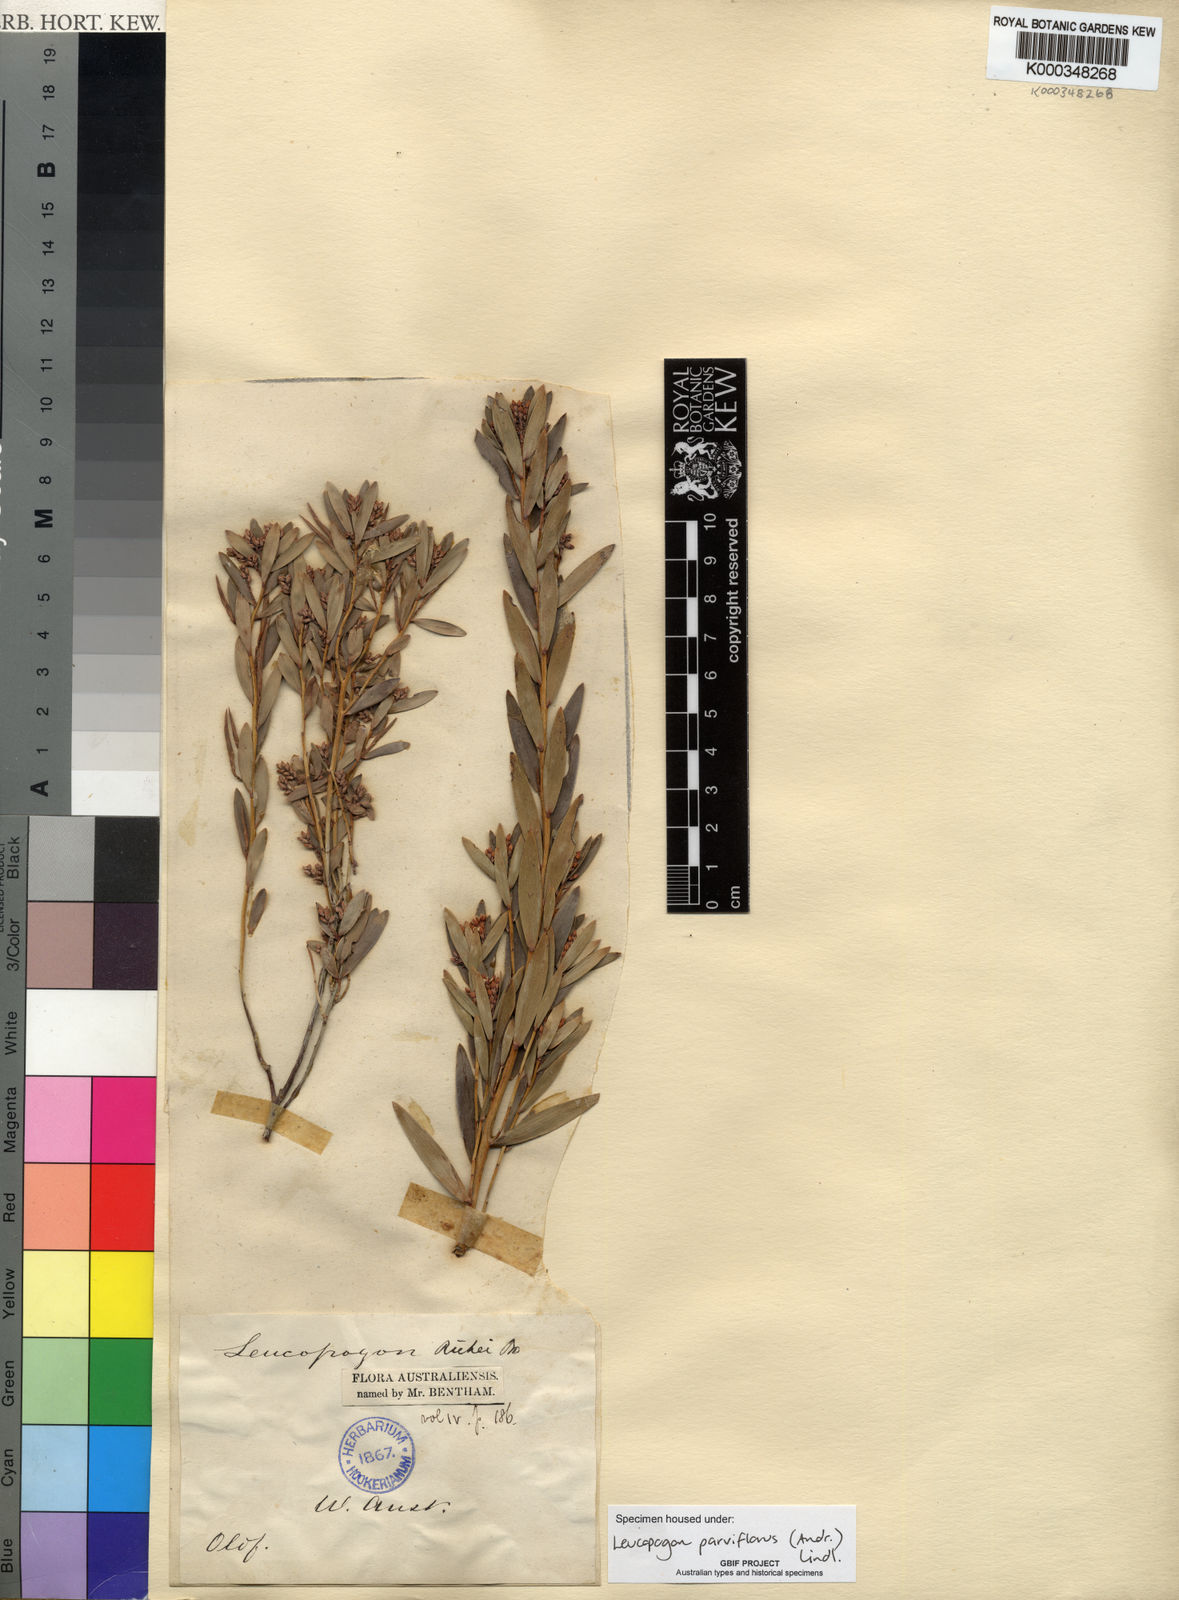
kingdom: Plantae
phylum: Tracheophyta
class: Magnoliopsida
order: Ericales
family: Ericaceae
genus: Leptecophylla
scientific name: Leptecophylla parvifolia
